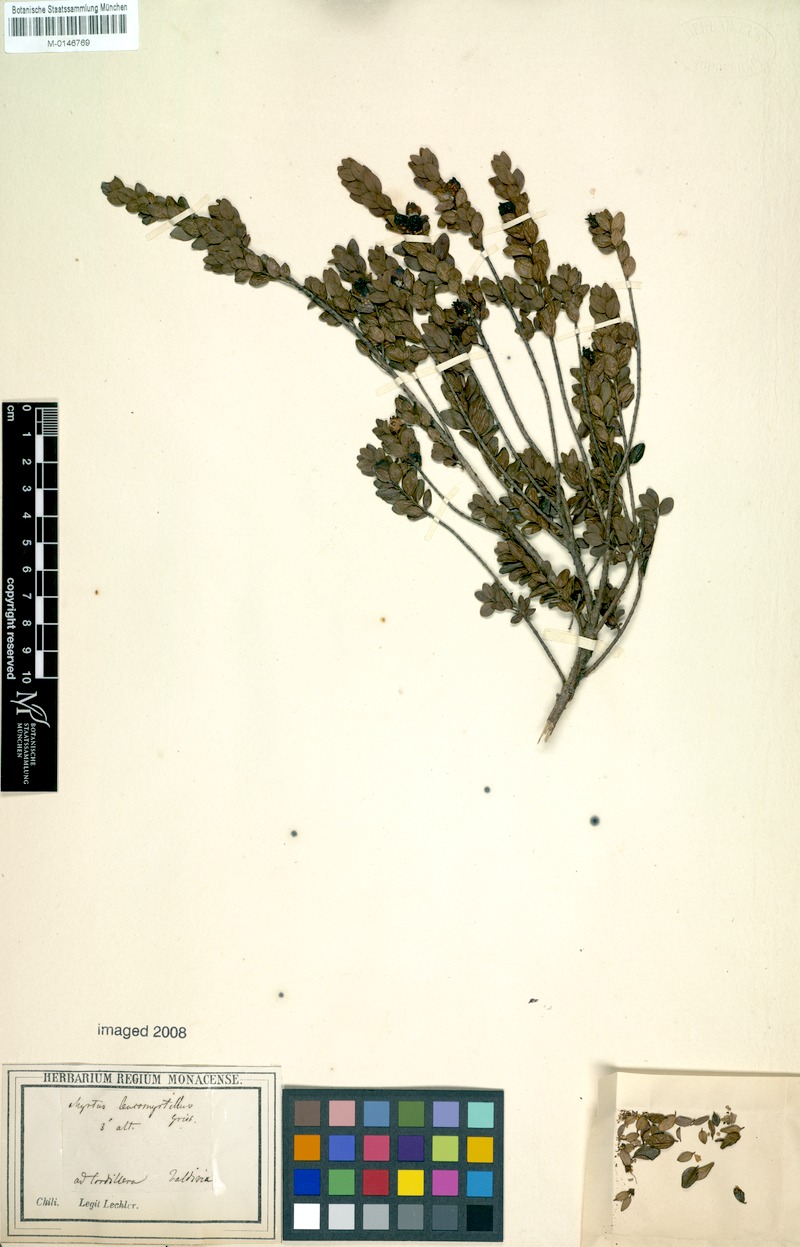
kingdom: Plantae
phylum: Tracheophyta
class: Magnoliopsida
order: Myrtales
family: Myrtaceae
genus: Myrteola
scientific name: Myrteola nummularia
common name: Cranberry-myrtle
